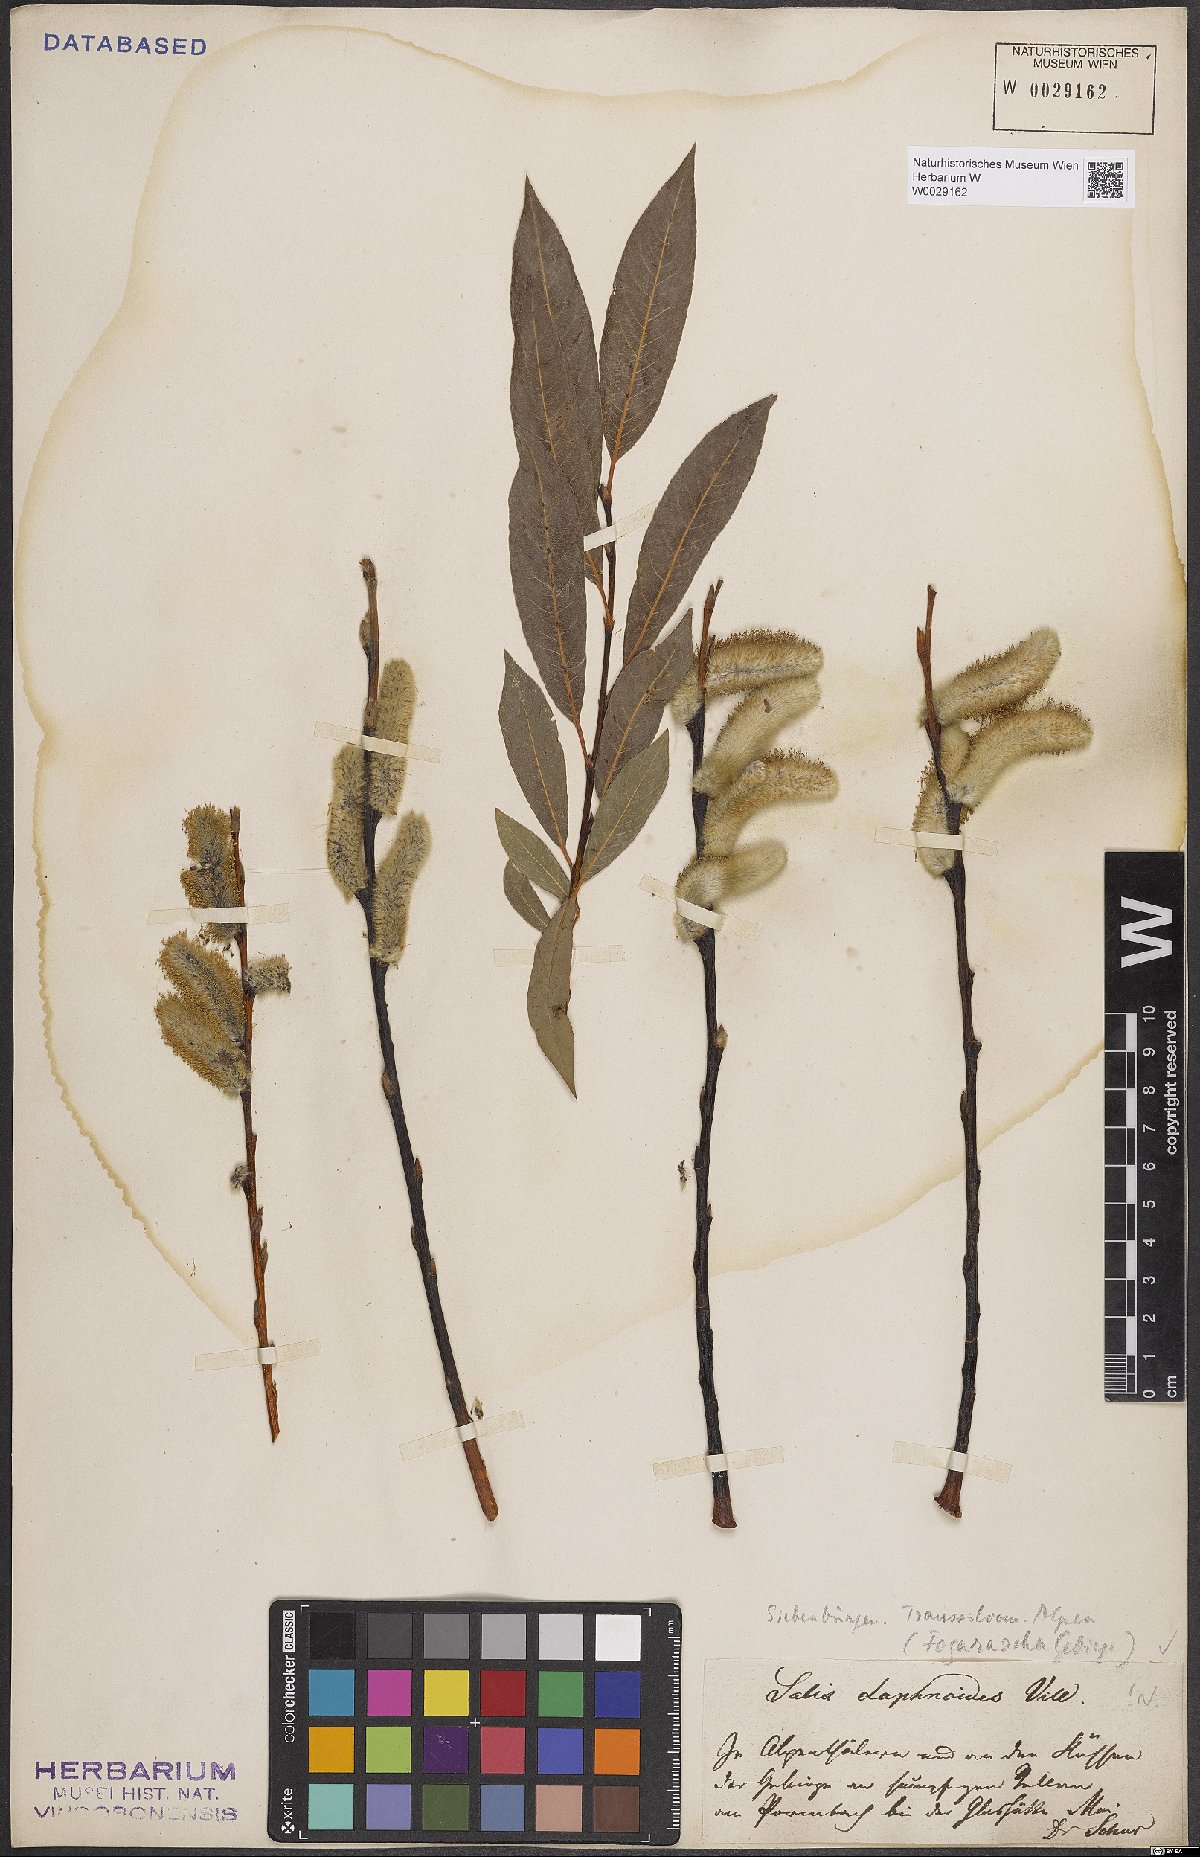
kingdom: Plantae
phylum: Tracheophyta
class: Magnoliopsida
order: Malpighiales
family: Salicaceae
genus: Salix
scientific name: Salix daphnoides
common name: European violet-willow
